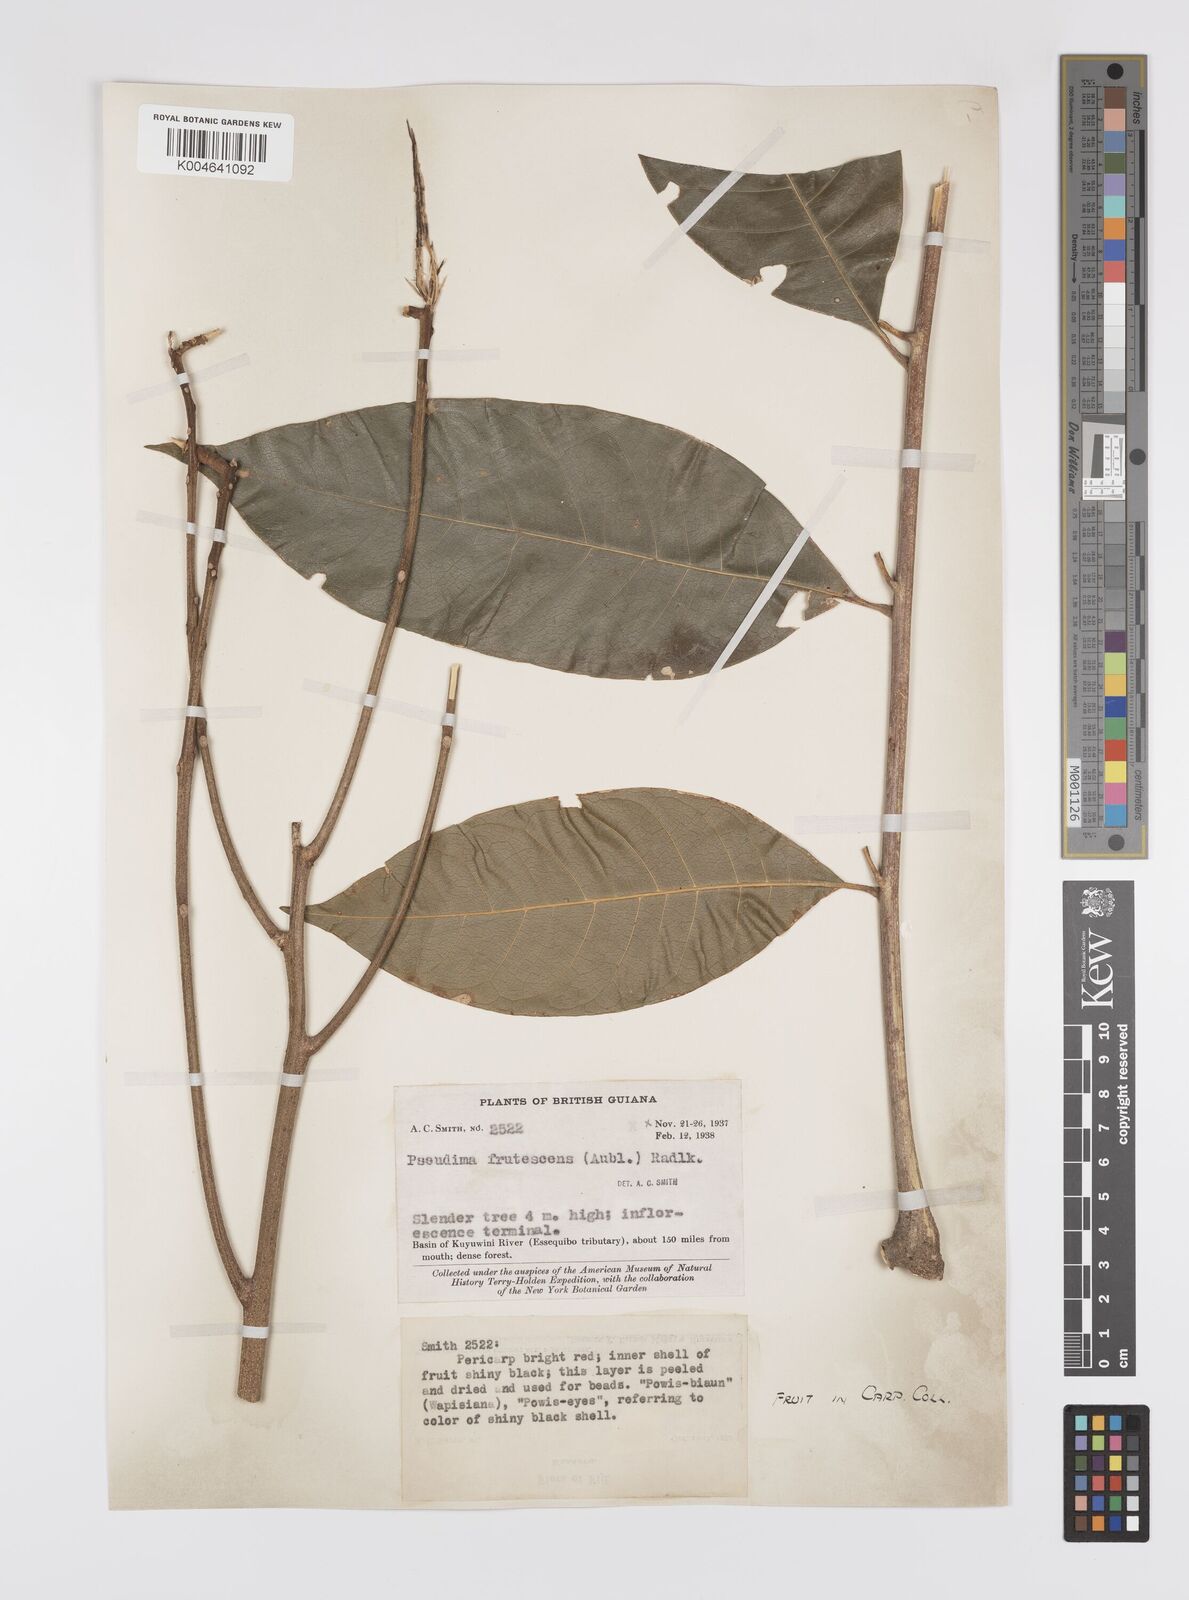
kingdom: Plantae
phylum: Tracheophyta
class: Magnoliopsida
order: Sapindales
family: Sapindaceae
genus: Pseudima
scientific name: Pseudima frutescens
